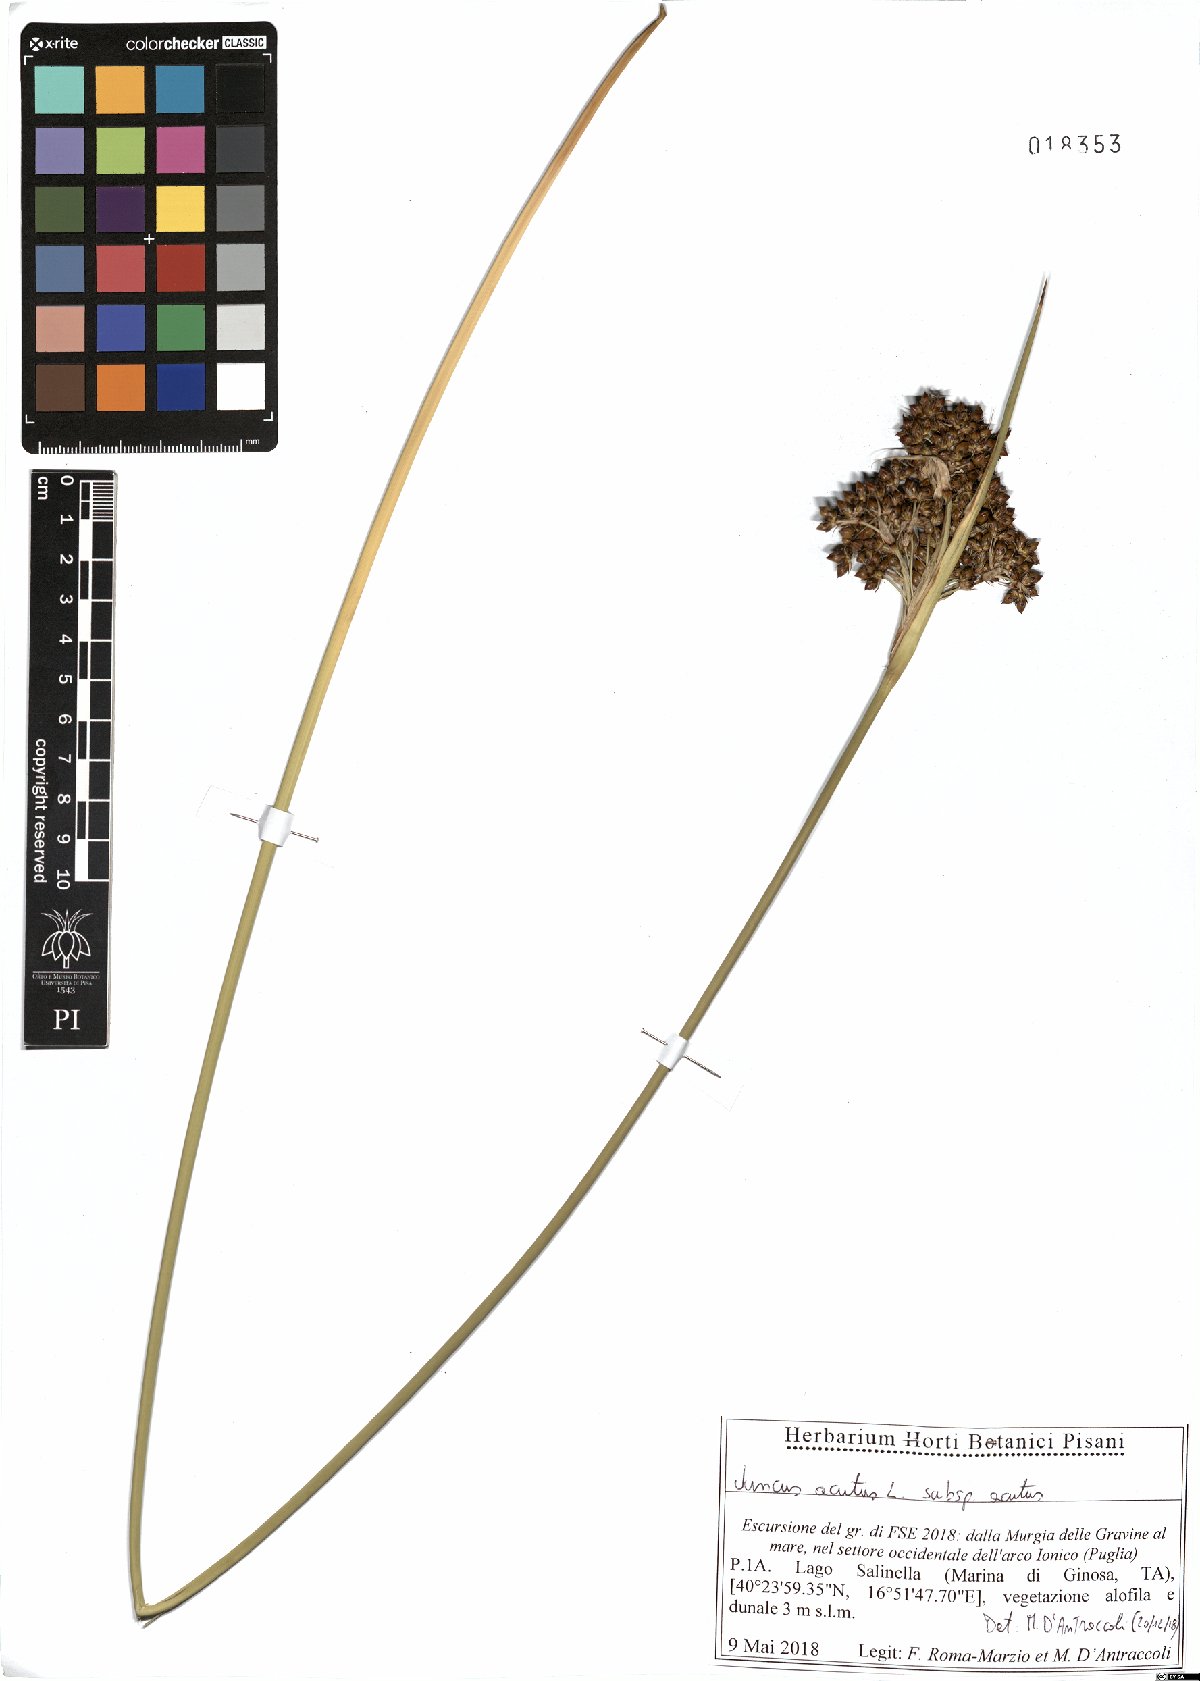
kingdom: Plantae
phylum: Tracheophyta
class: Liliopsida
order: Poales
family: Juncaceae
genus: Juncus
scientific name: Juncus acutus
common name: Sharp rush
